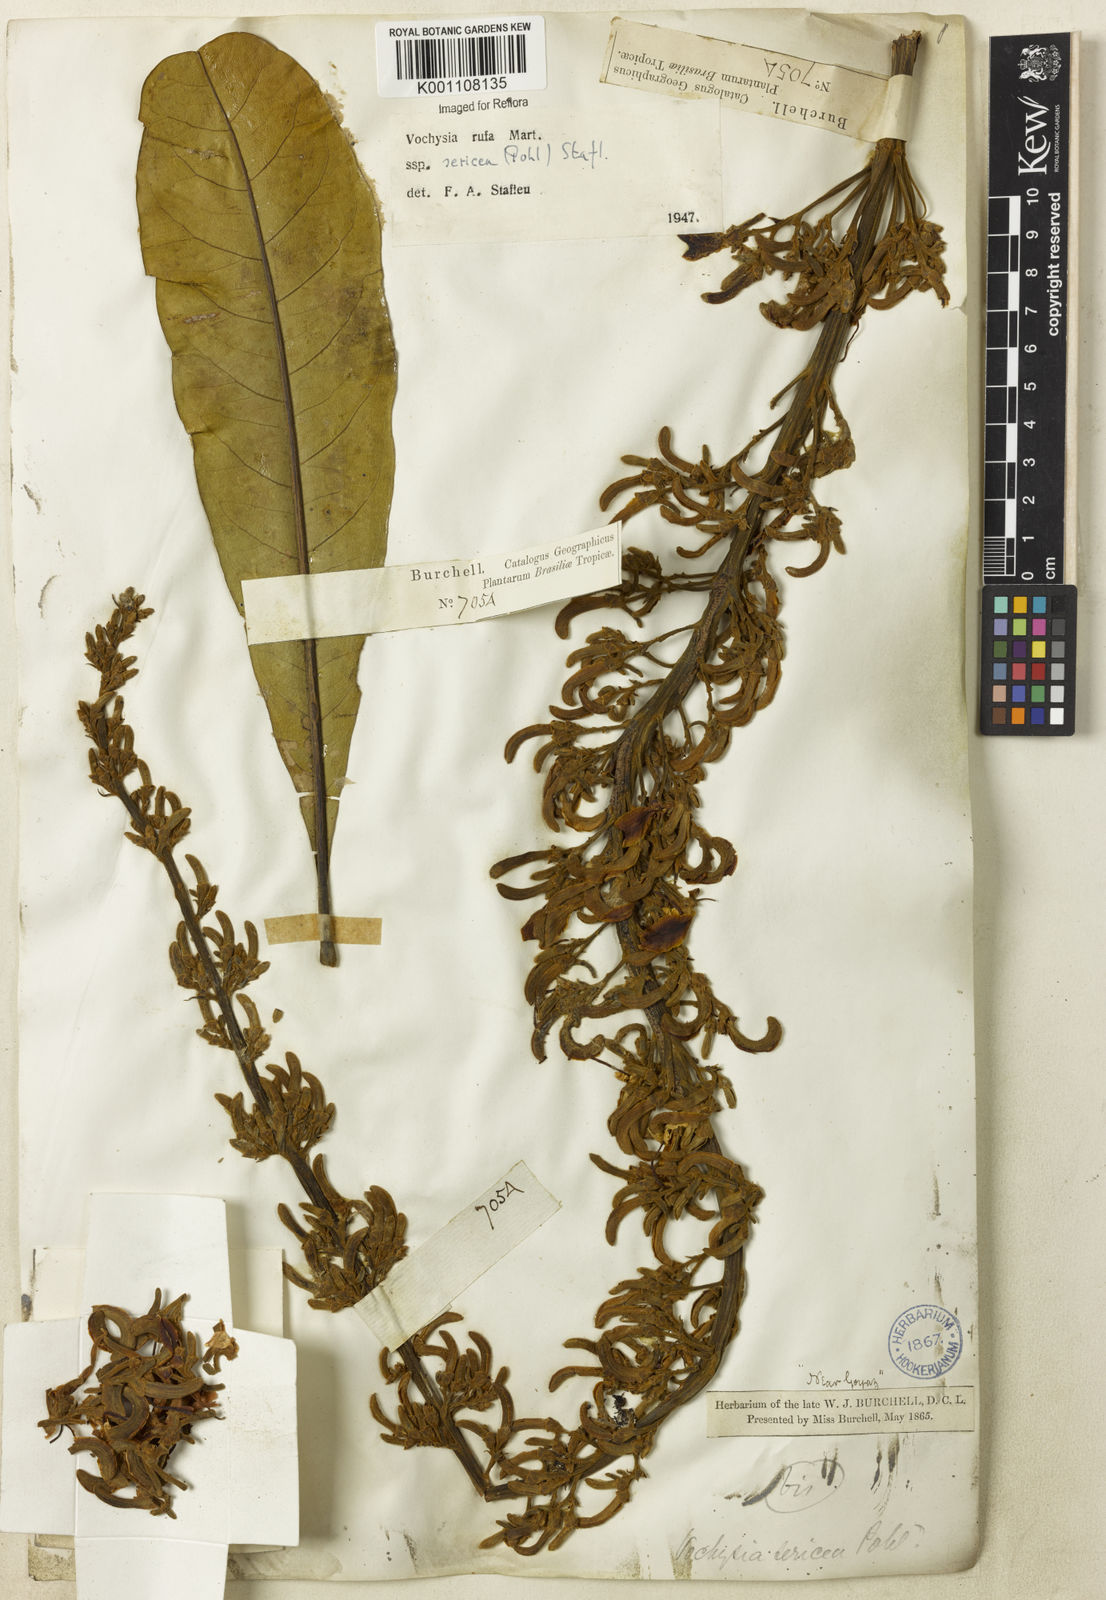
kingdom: Plantae
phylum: Tracheophyta
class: Magnoliopsida
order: Myrtales
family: Vochysiaceae
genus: Vochysia
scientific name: Vochysia rufa
